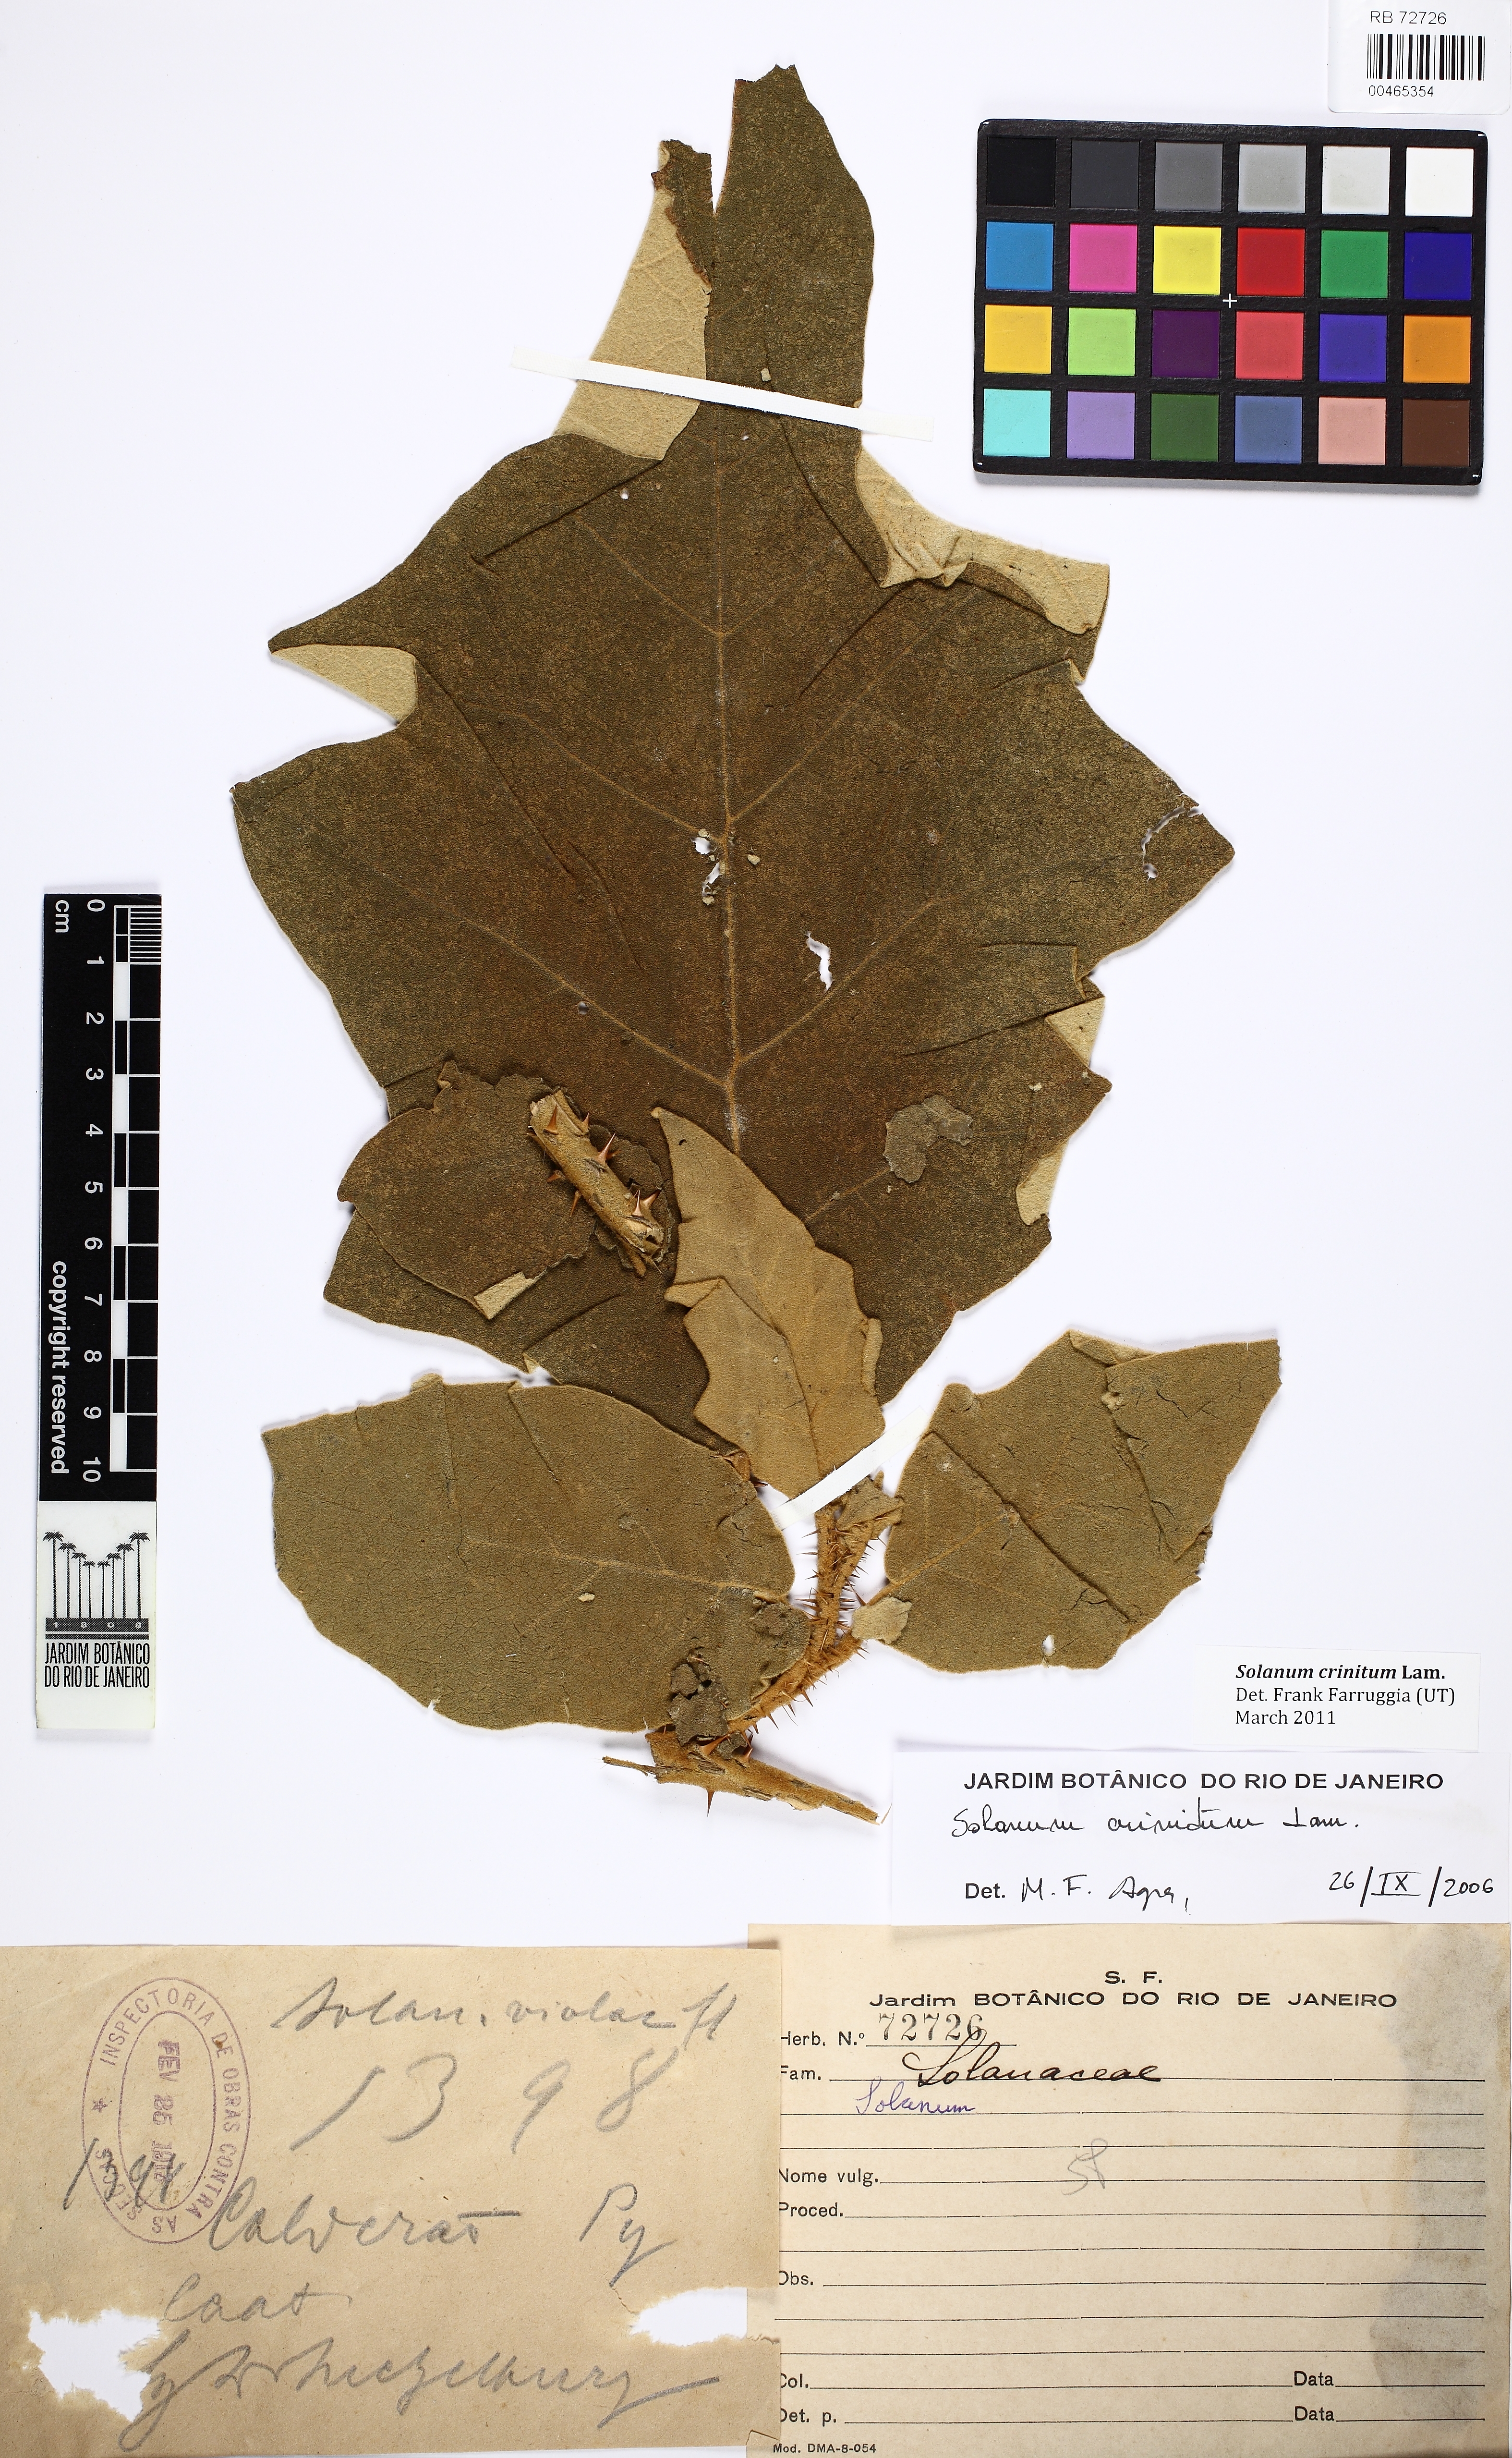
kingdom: Plantae
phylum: Tracheophyta
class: Magnoliopsida
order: Solanales
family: Solanaceae
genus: Solanum
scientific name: Solanum crinitum
